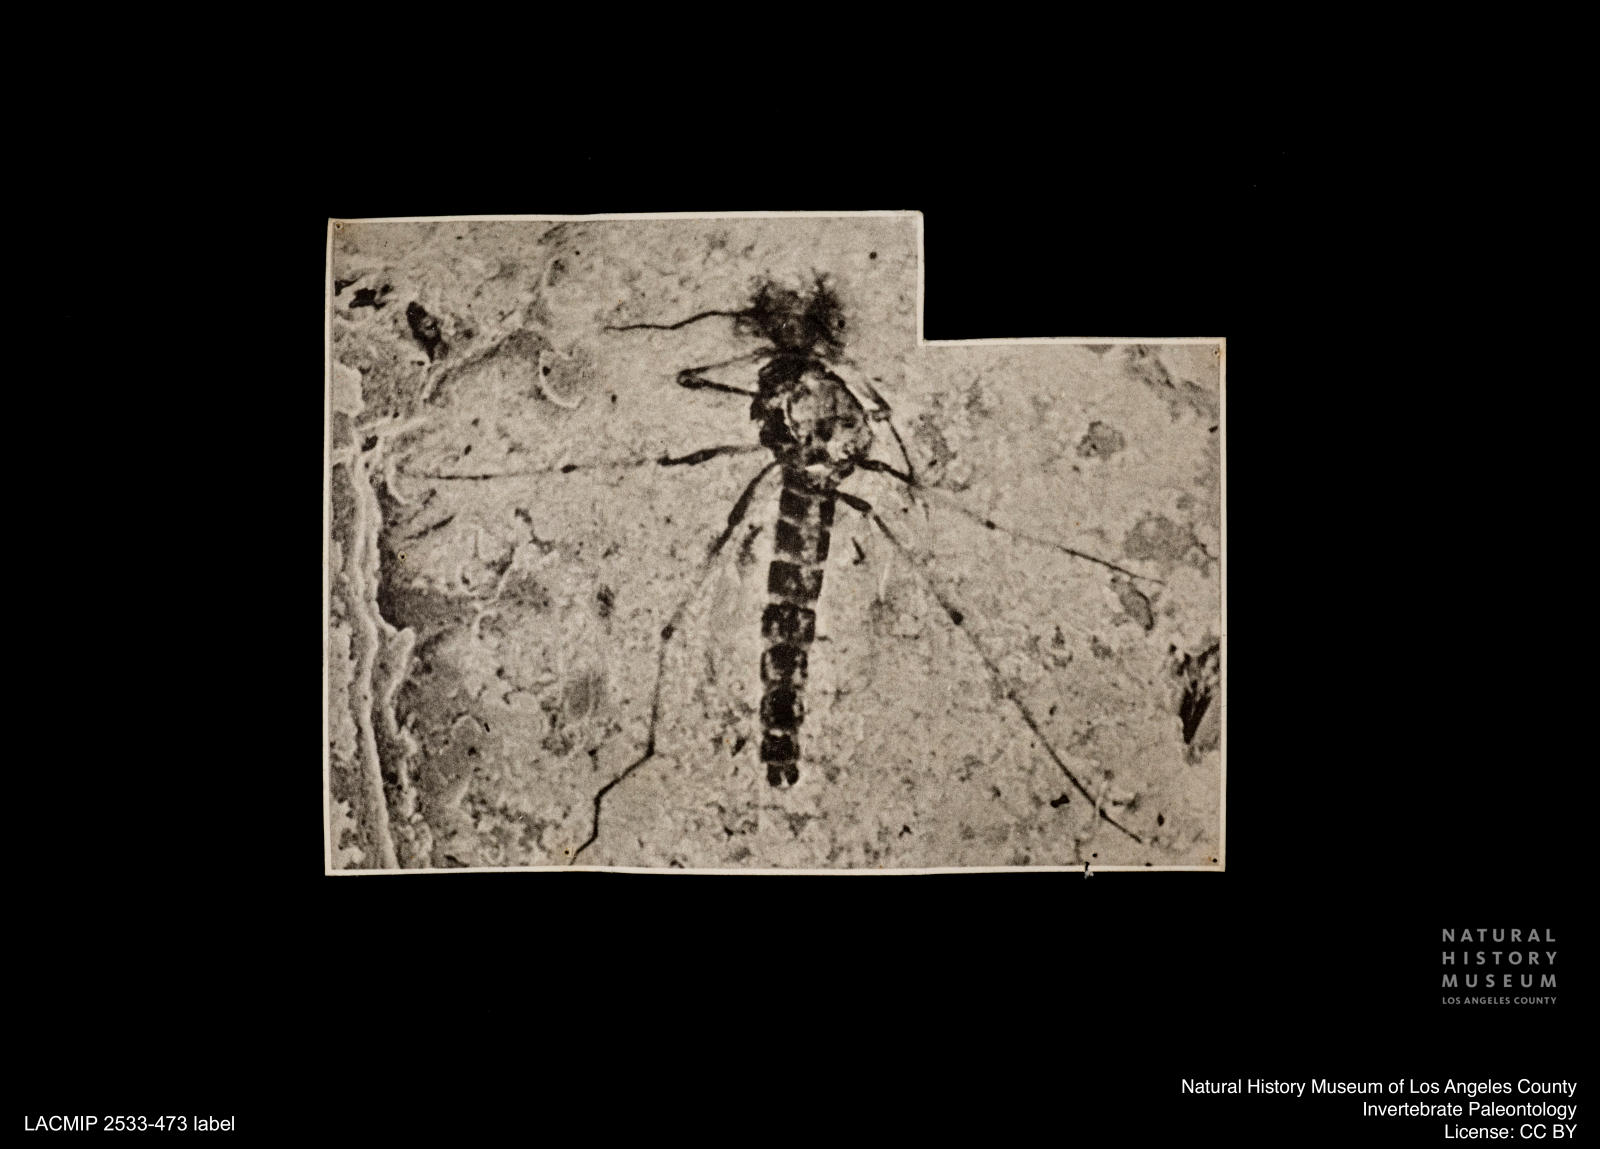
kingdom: Animalia
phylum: Arthropoda
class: Insecta
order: Diptera
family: Chironomidae
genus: Procladius
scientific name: Procladius
